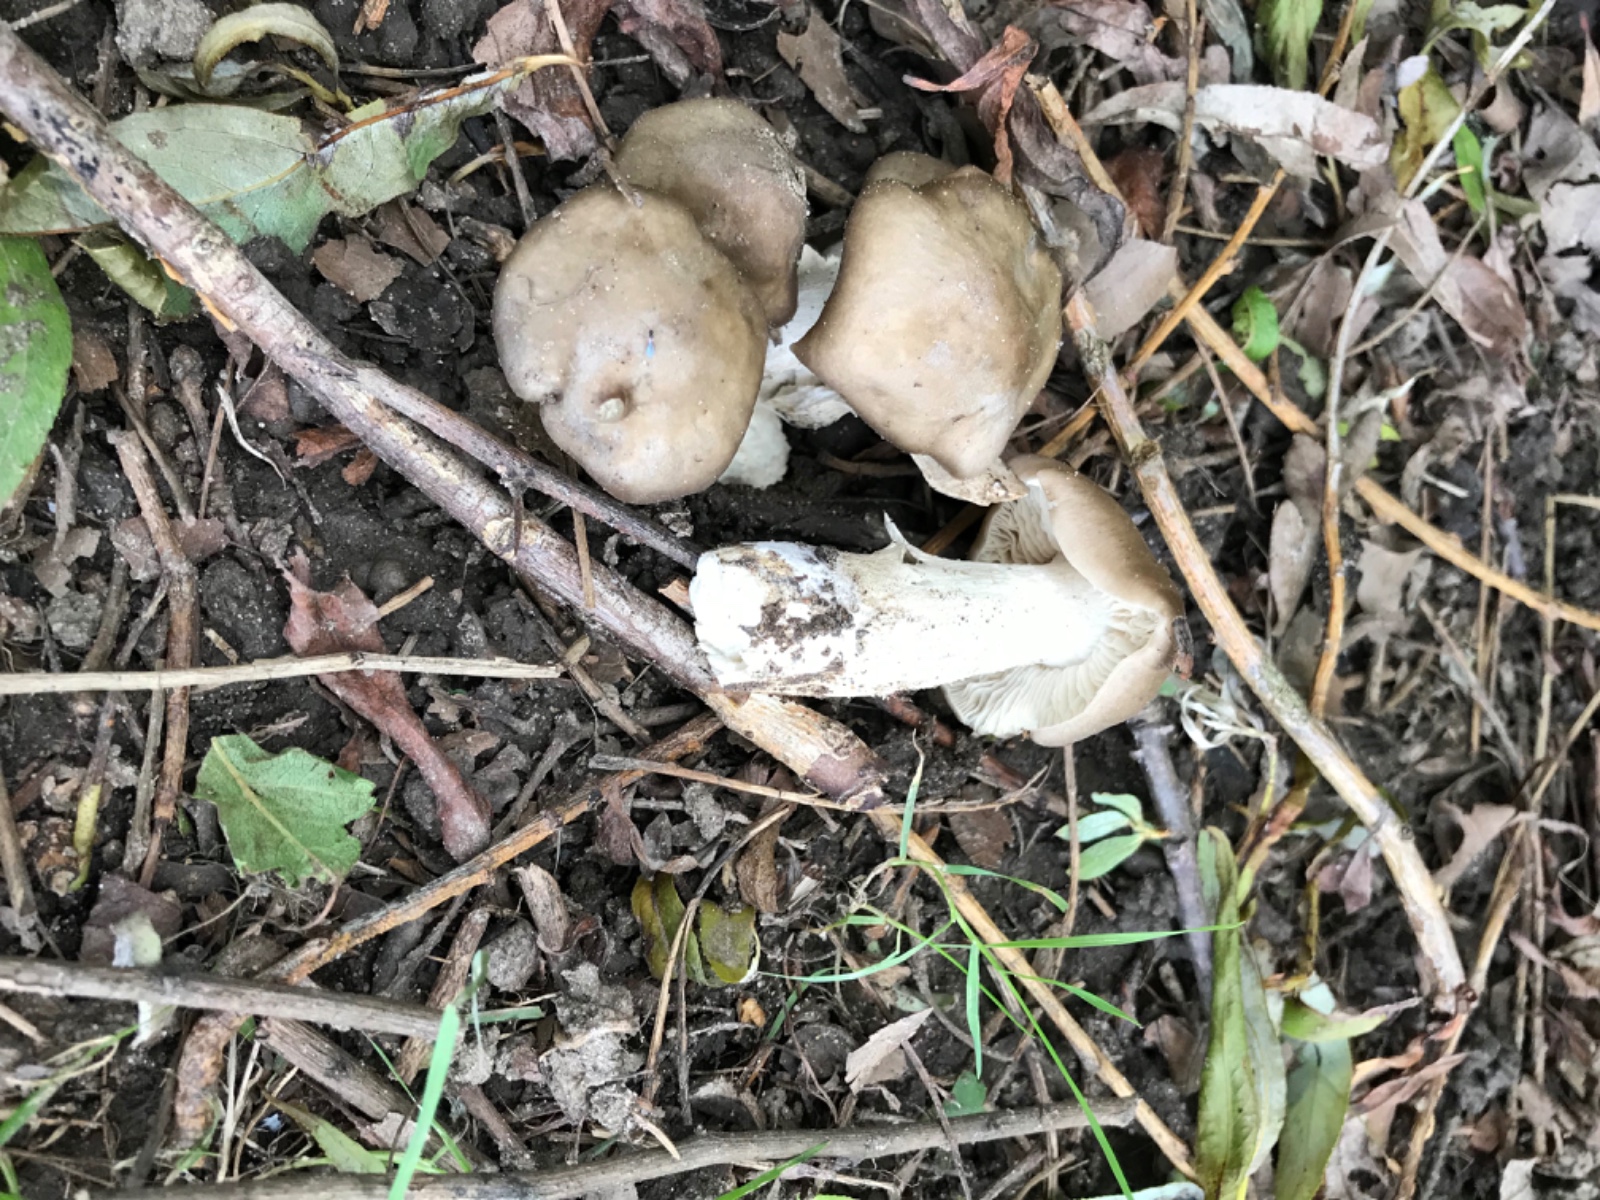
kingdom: Fungi
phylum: Basidiomycota
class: Agaricomycetes
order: Agaricales
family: Lyophyllaceae
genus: Lyophyllum
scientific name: Lyophyllum
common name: gråblad
